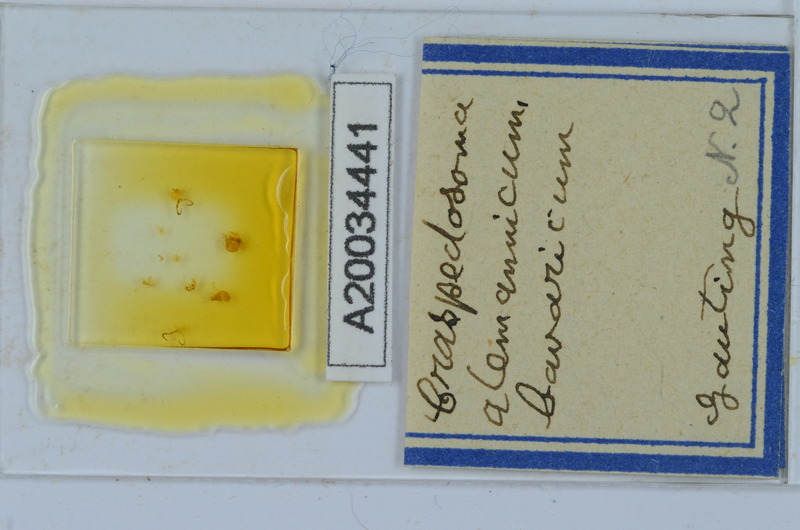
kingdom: Animalia
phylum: Arthropoda
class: Diplopoda
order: Chordeumatida
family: Craspedosomatidae
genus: Craspedosoma
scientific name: Craspedosoma alemannicum
